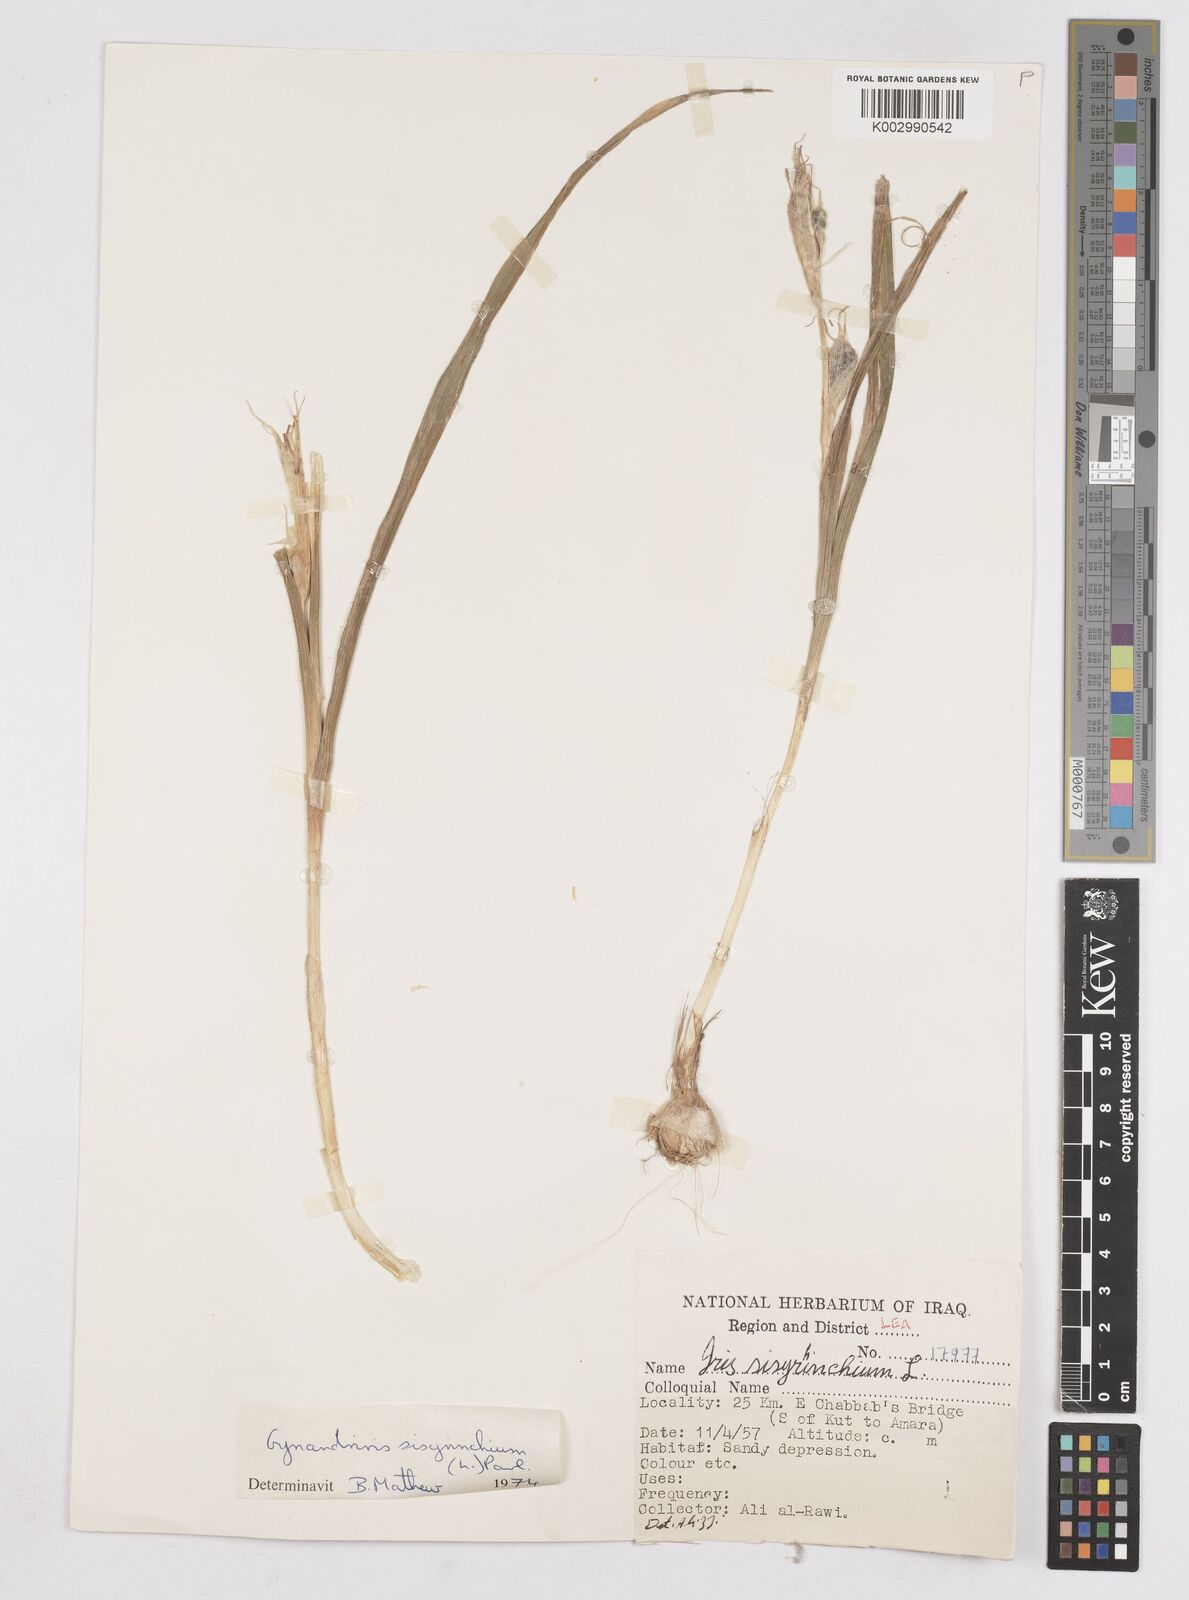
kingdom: Plantae
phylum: Tracheophyta
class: Liliopsida
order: Asparagales
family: Iridaceae
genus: Moraea
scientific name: Moraea sisyrinchium
